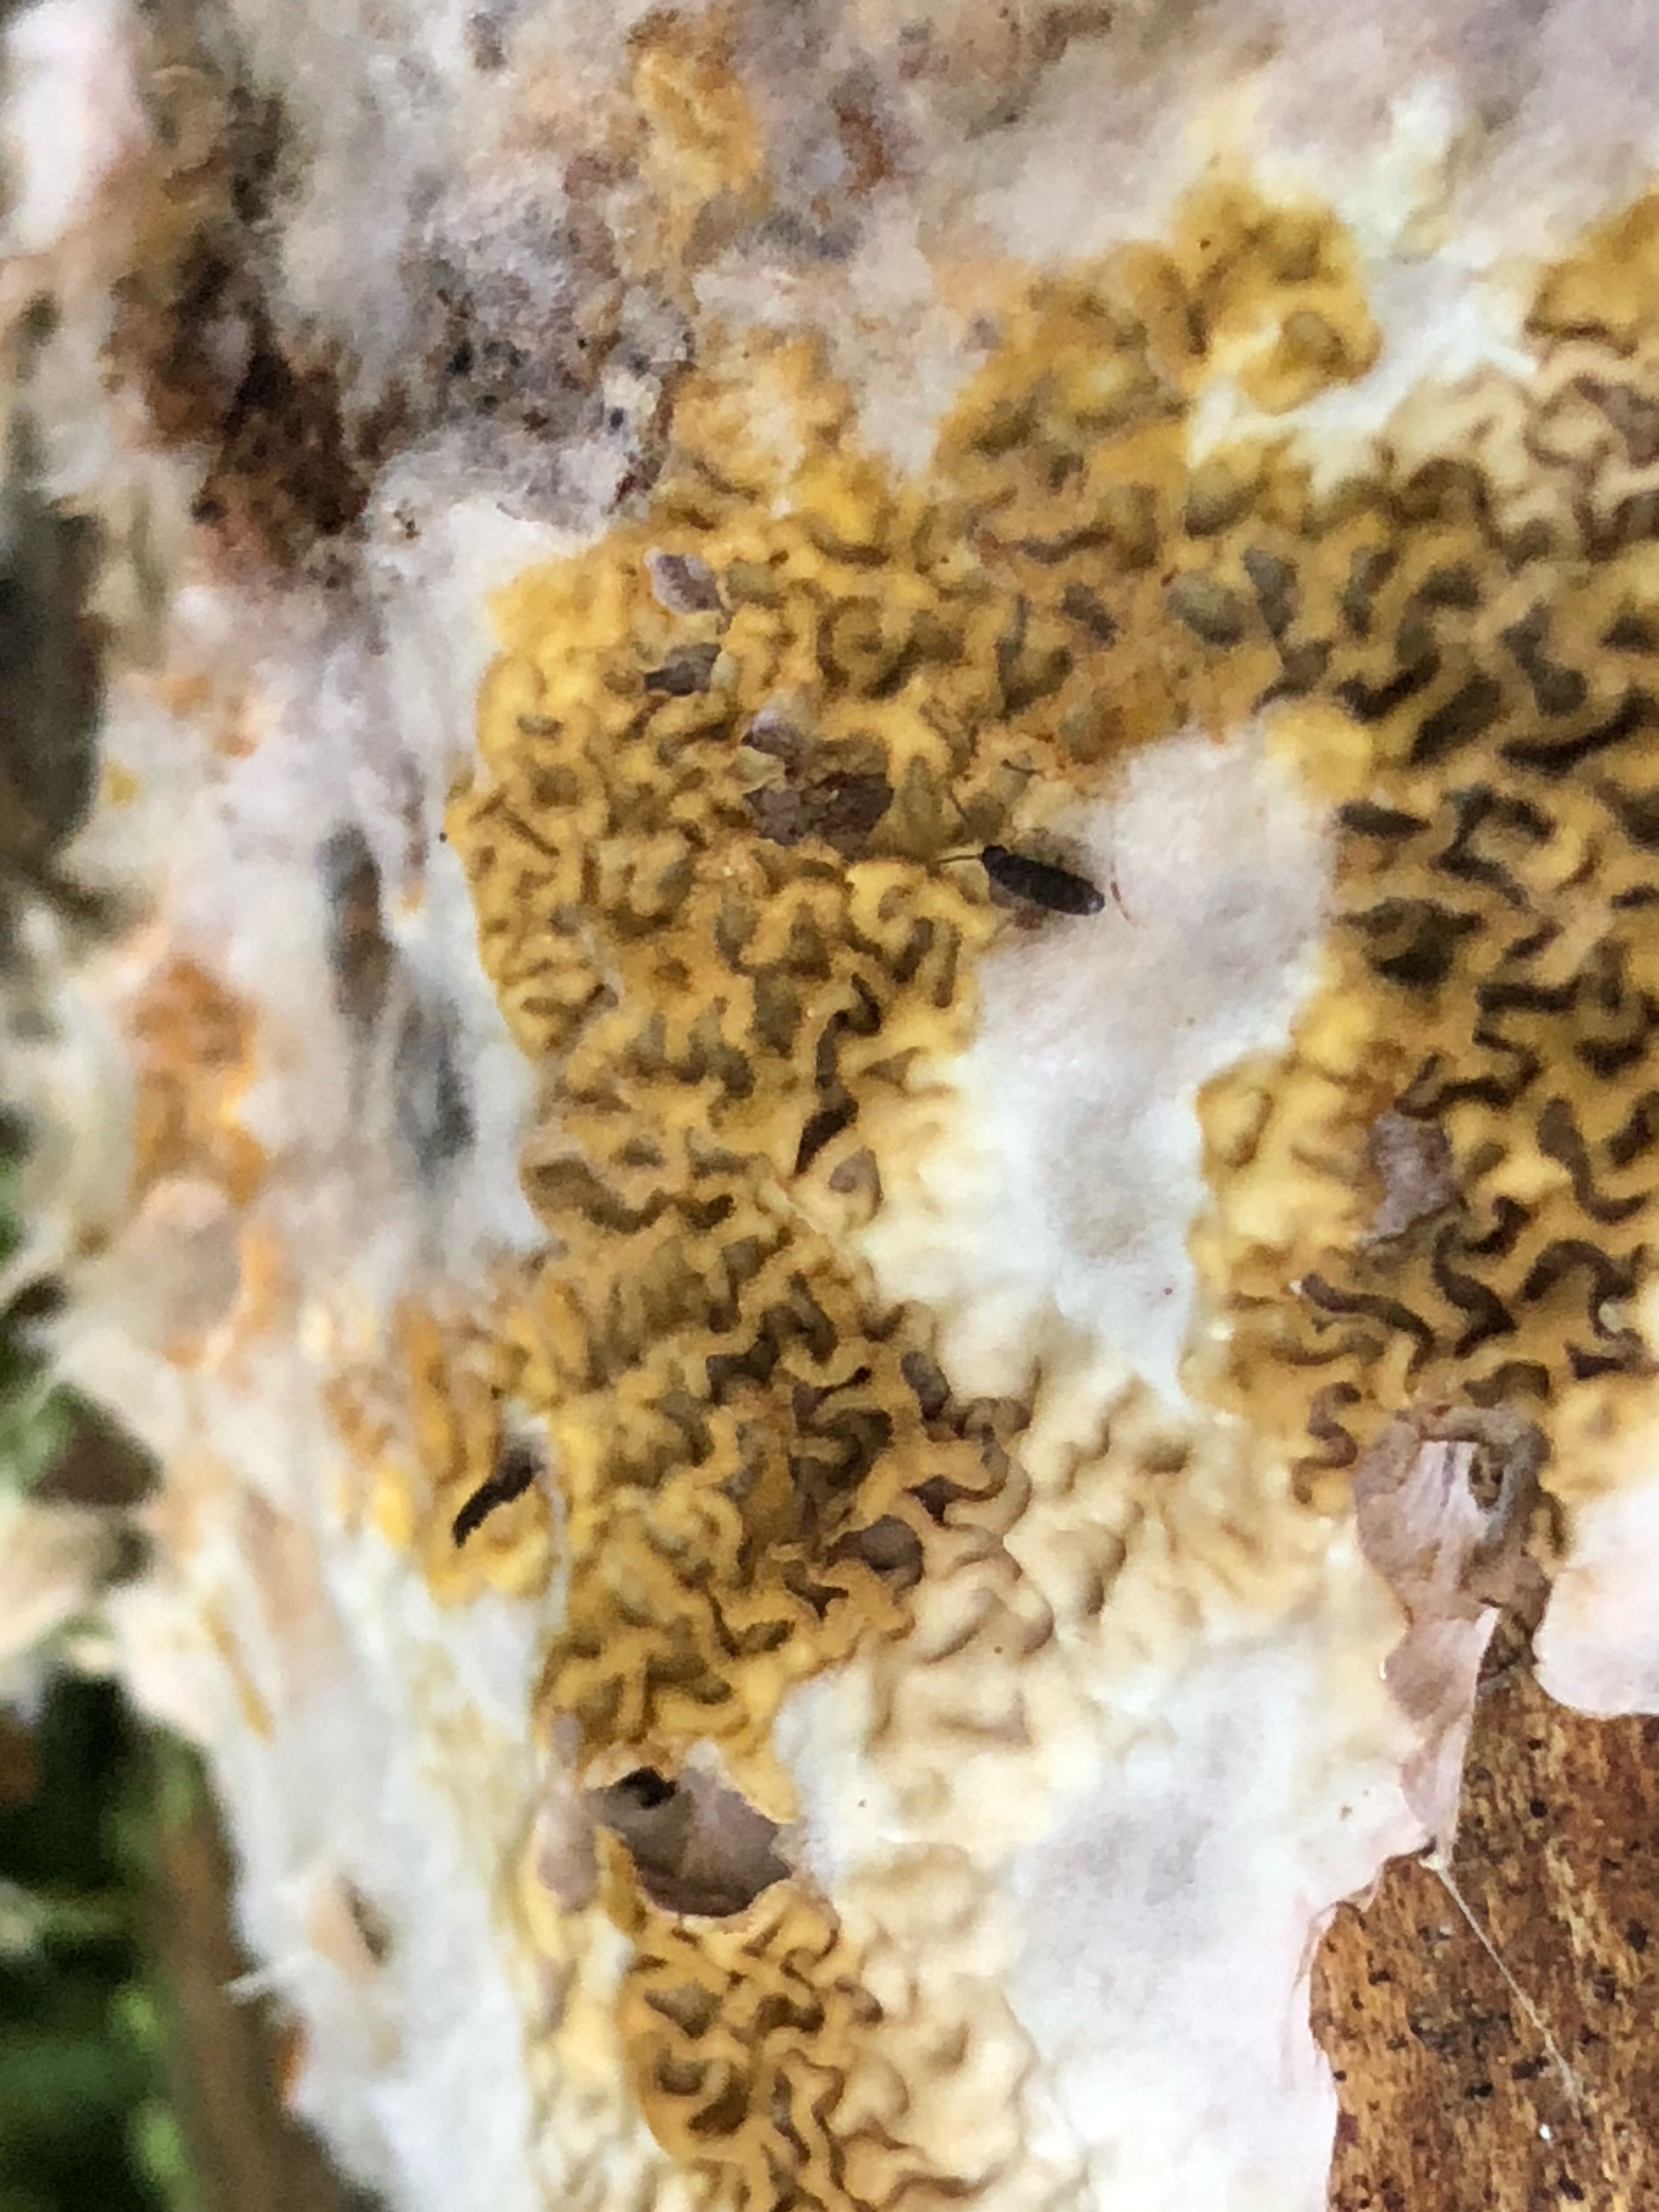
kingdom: Fungi
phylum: Basidiomycota
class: Agaricomycetes
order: Boletales
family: Serpulaceae
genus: Serpula
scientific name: Serpula himantioides
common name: tyndkødet hussvamp
